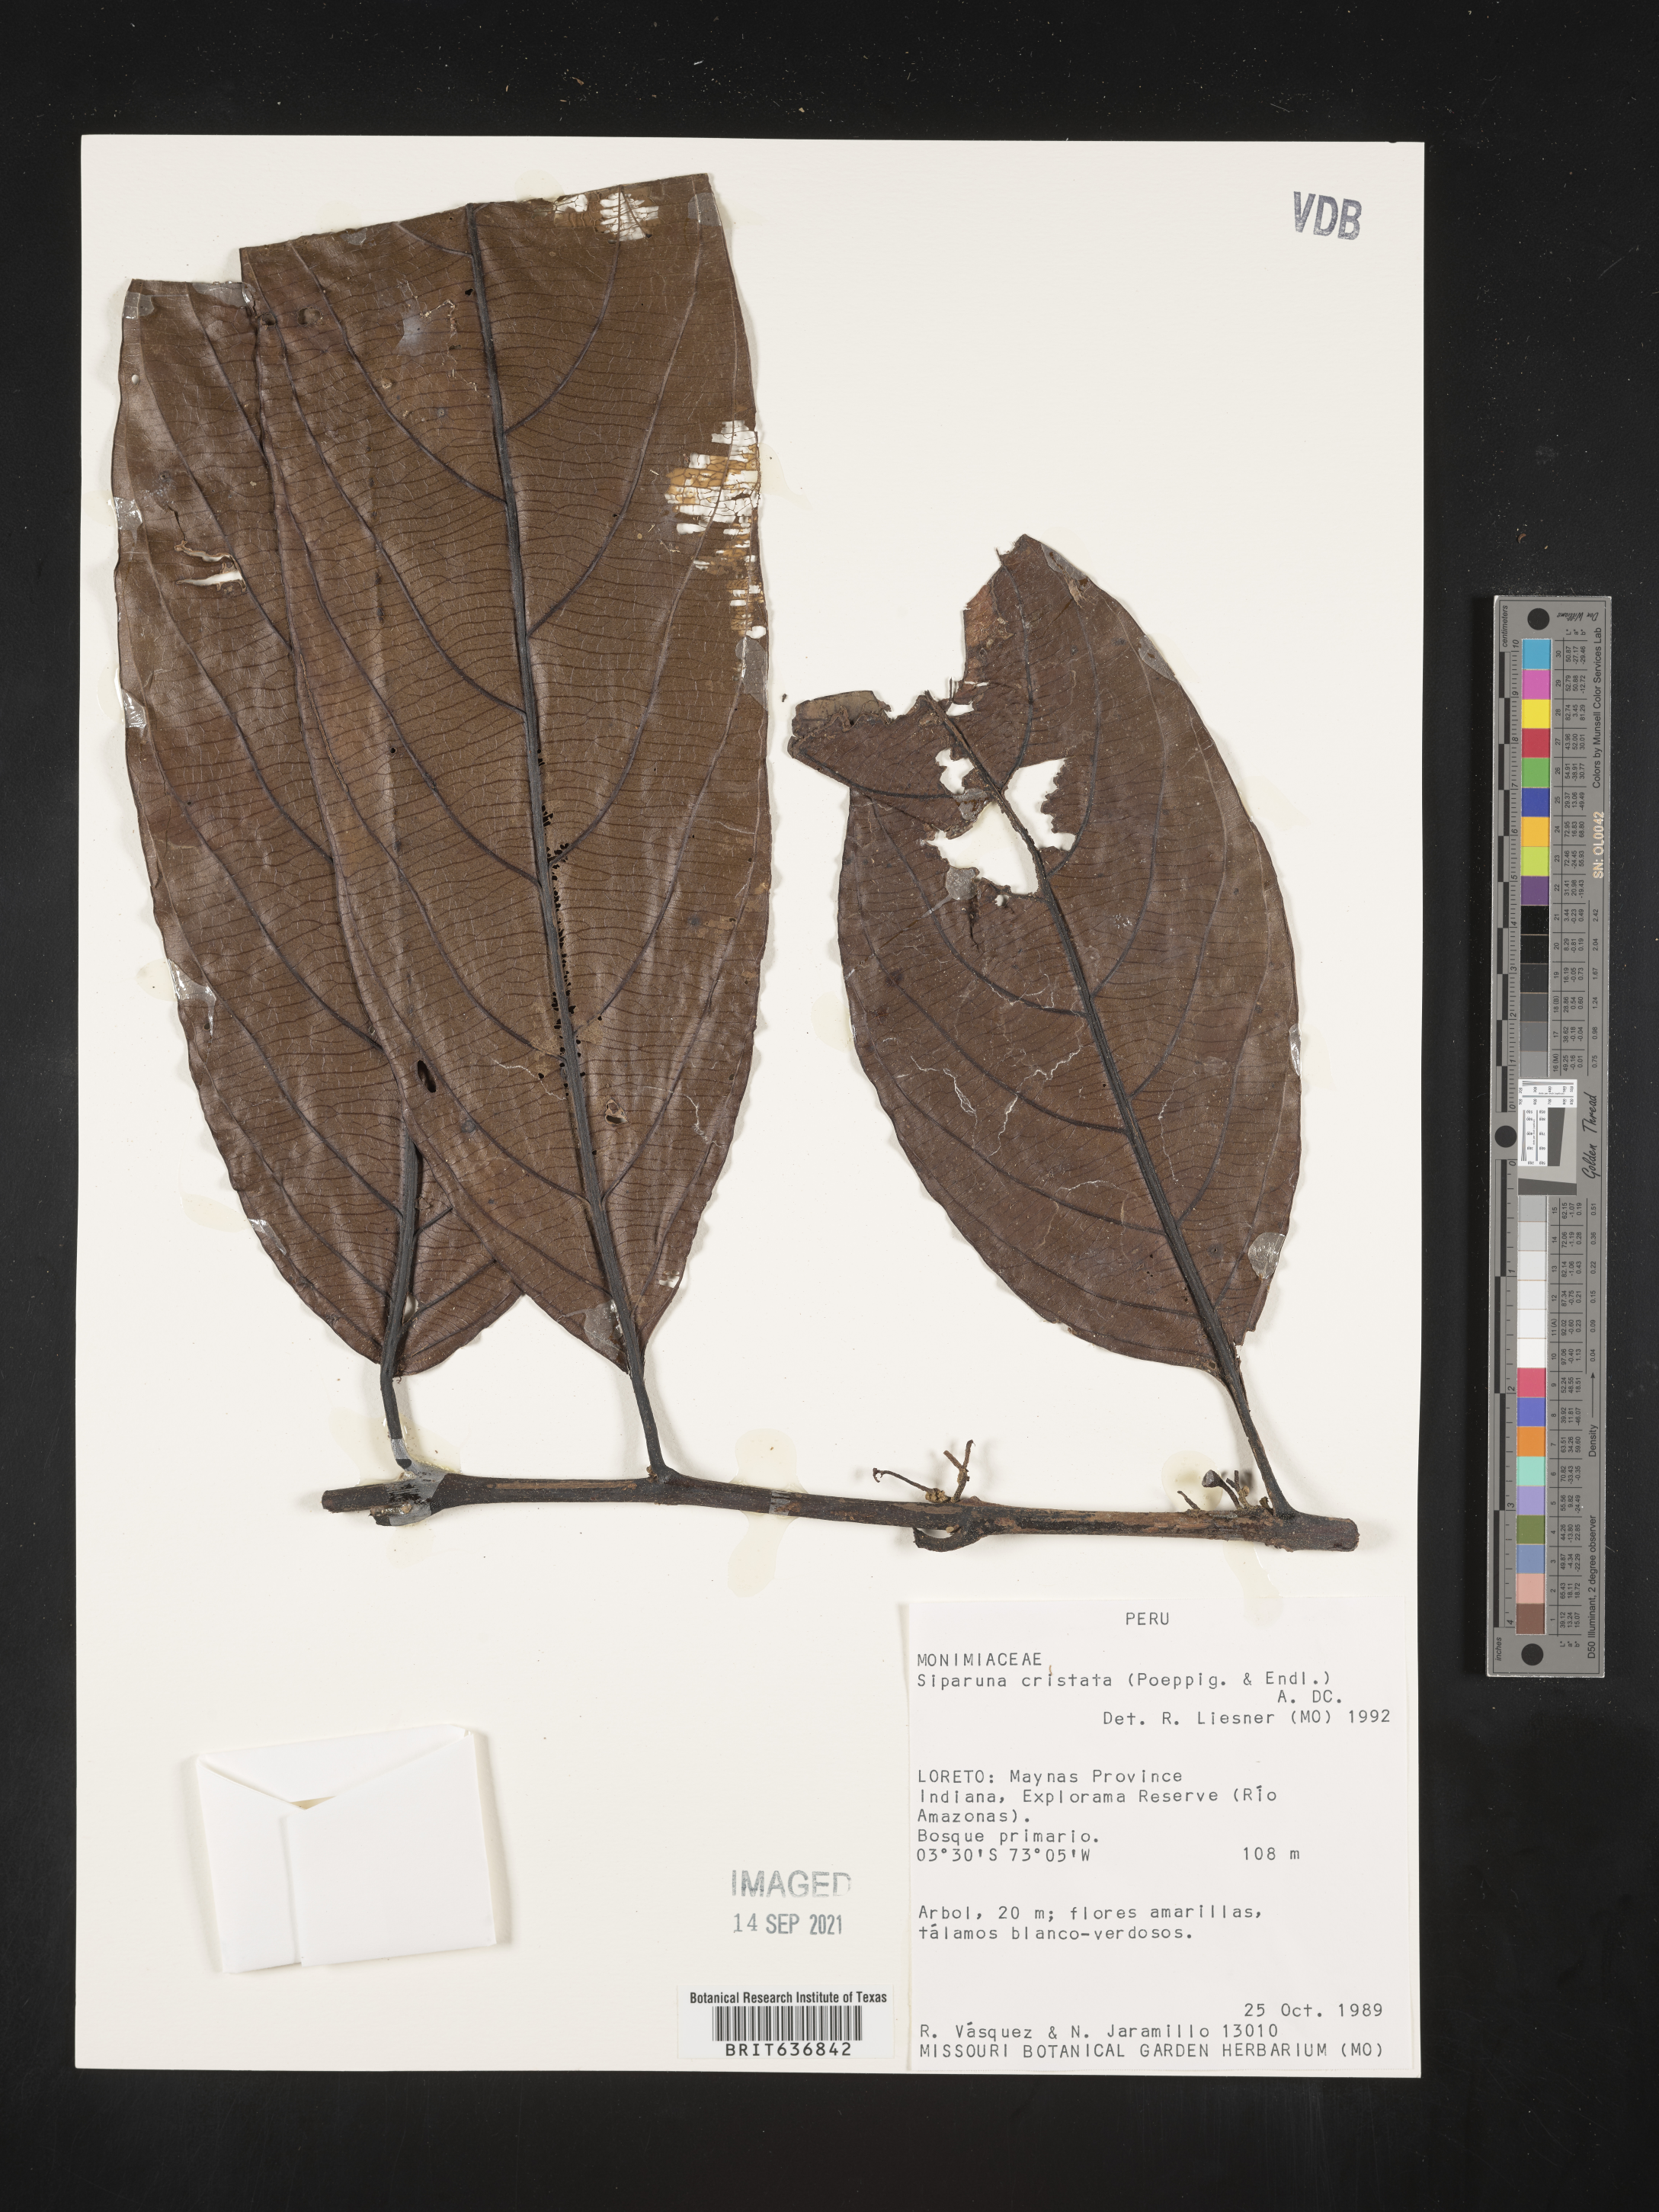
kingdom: Plantae
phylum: Tracheophyta
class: Magnoliopsida
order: Laurales
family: Siparunaceae
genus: Siparuna
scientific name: Siparuna
